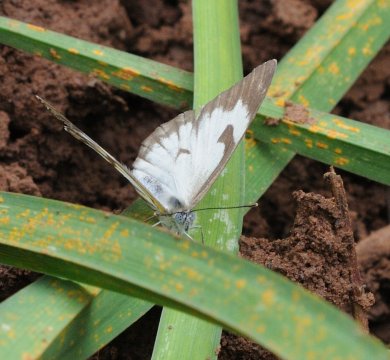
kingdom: Animalia
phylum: Arthropoda
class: Insecta
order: Lepidoptera
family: Pieridae
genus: Belenois
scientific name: Belenois aurota
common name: Pioneer White
